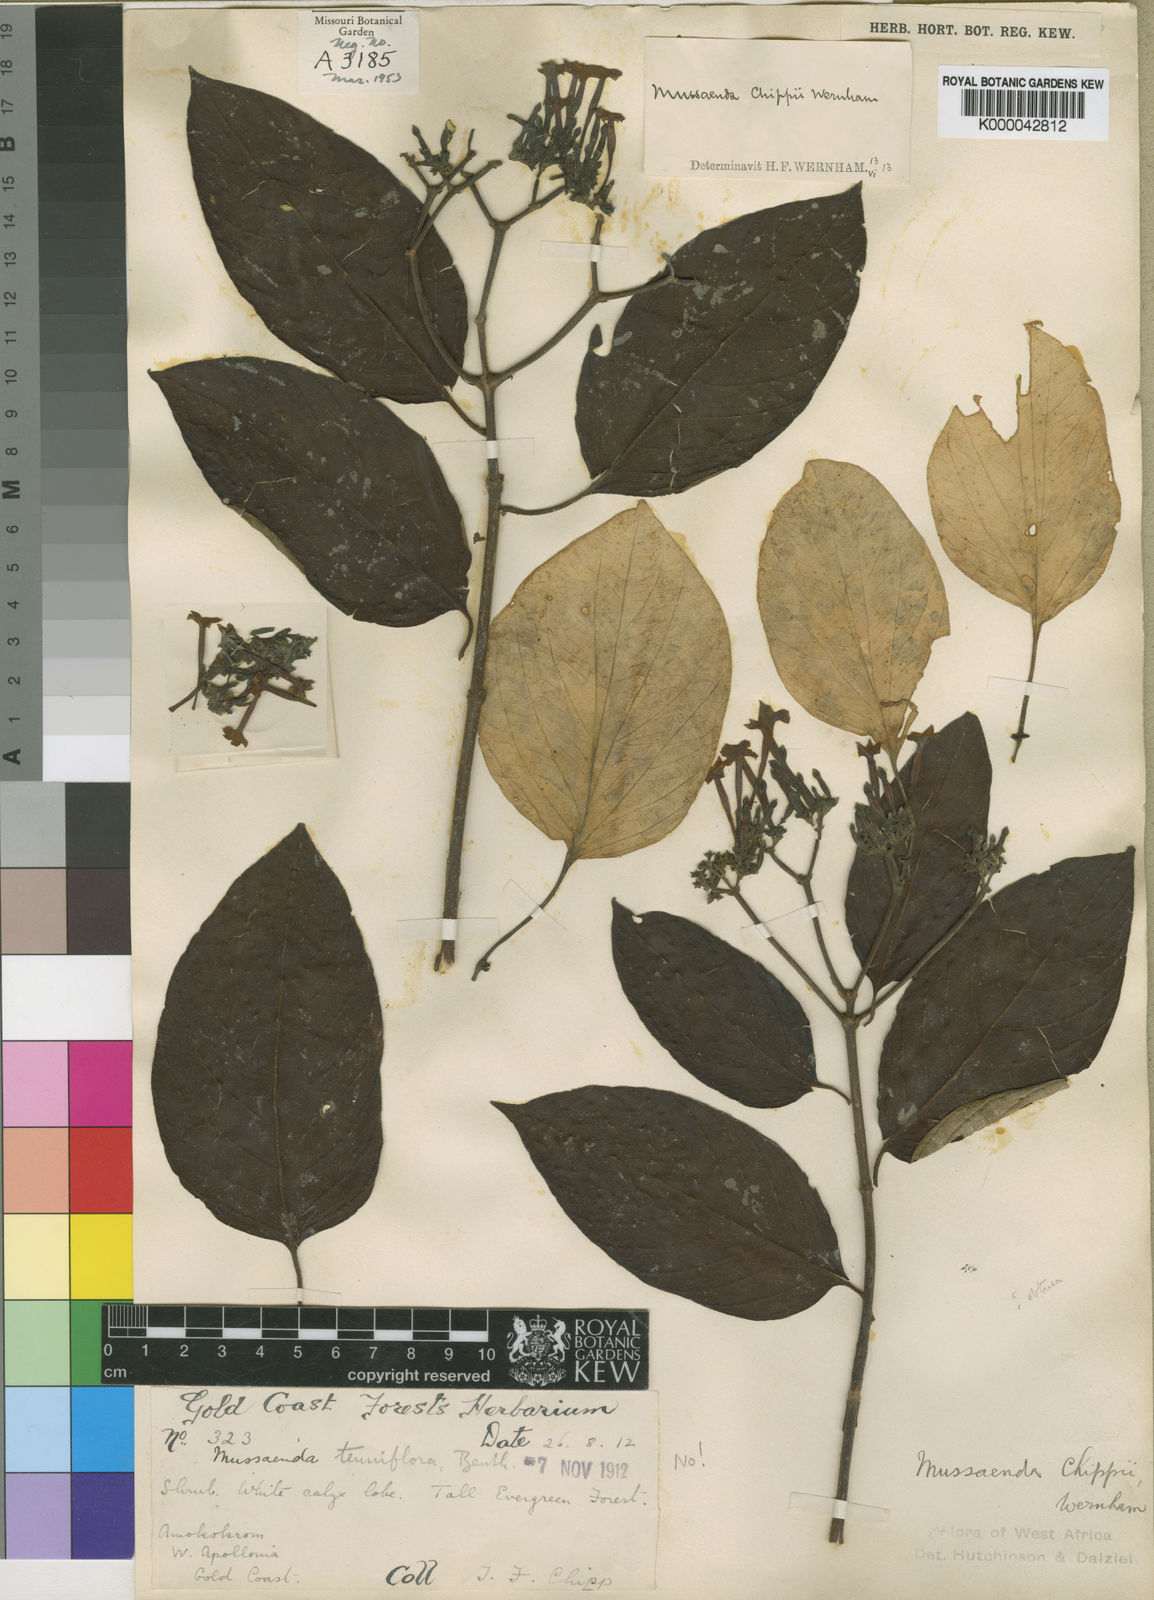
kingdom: Plantae
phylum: Tracheophyta
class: Magnoliopsida
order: Gentianales
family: Rubiaceae
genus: Mussaenda
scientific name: Mussaenda chippii
